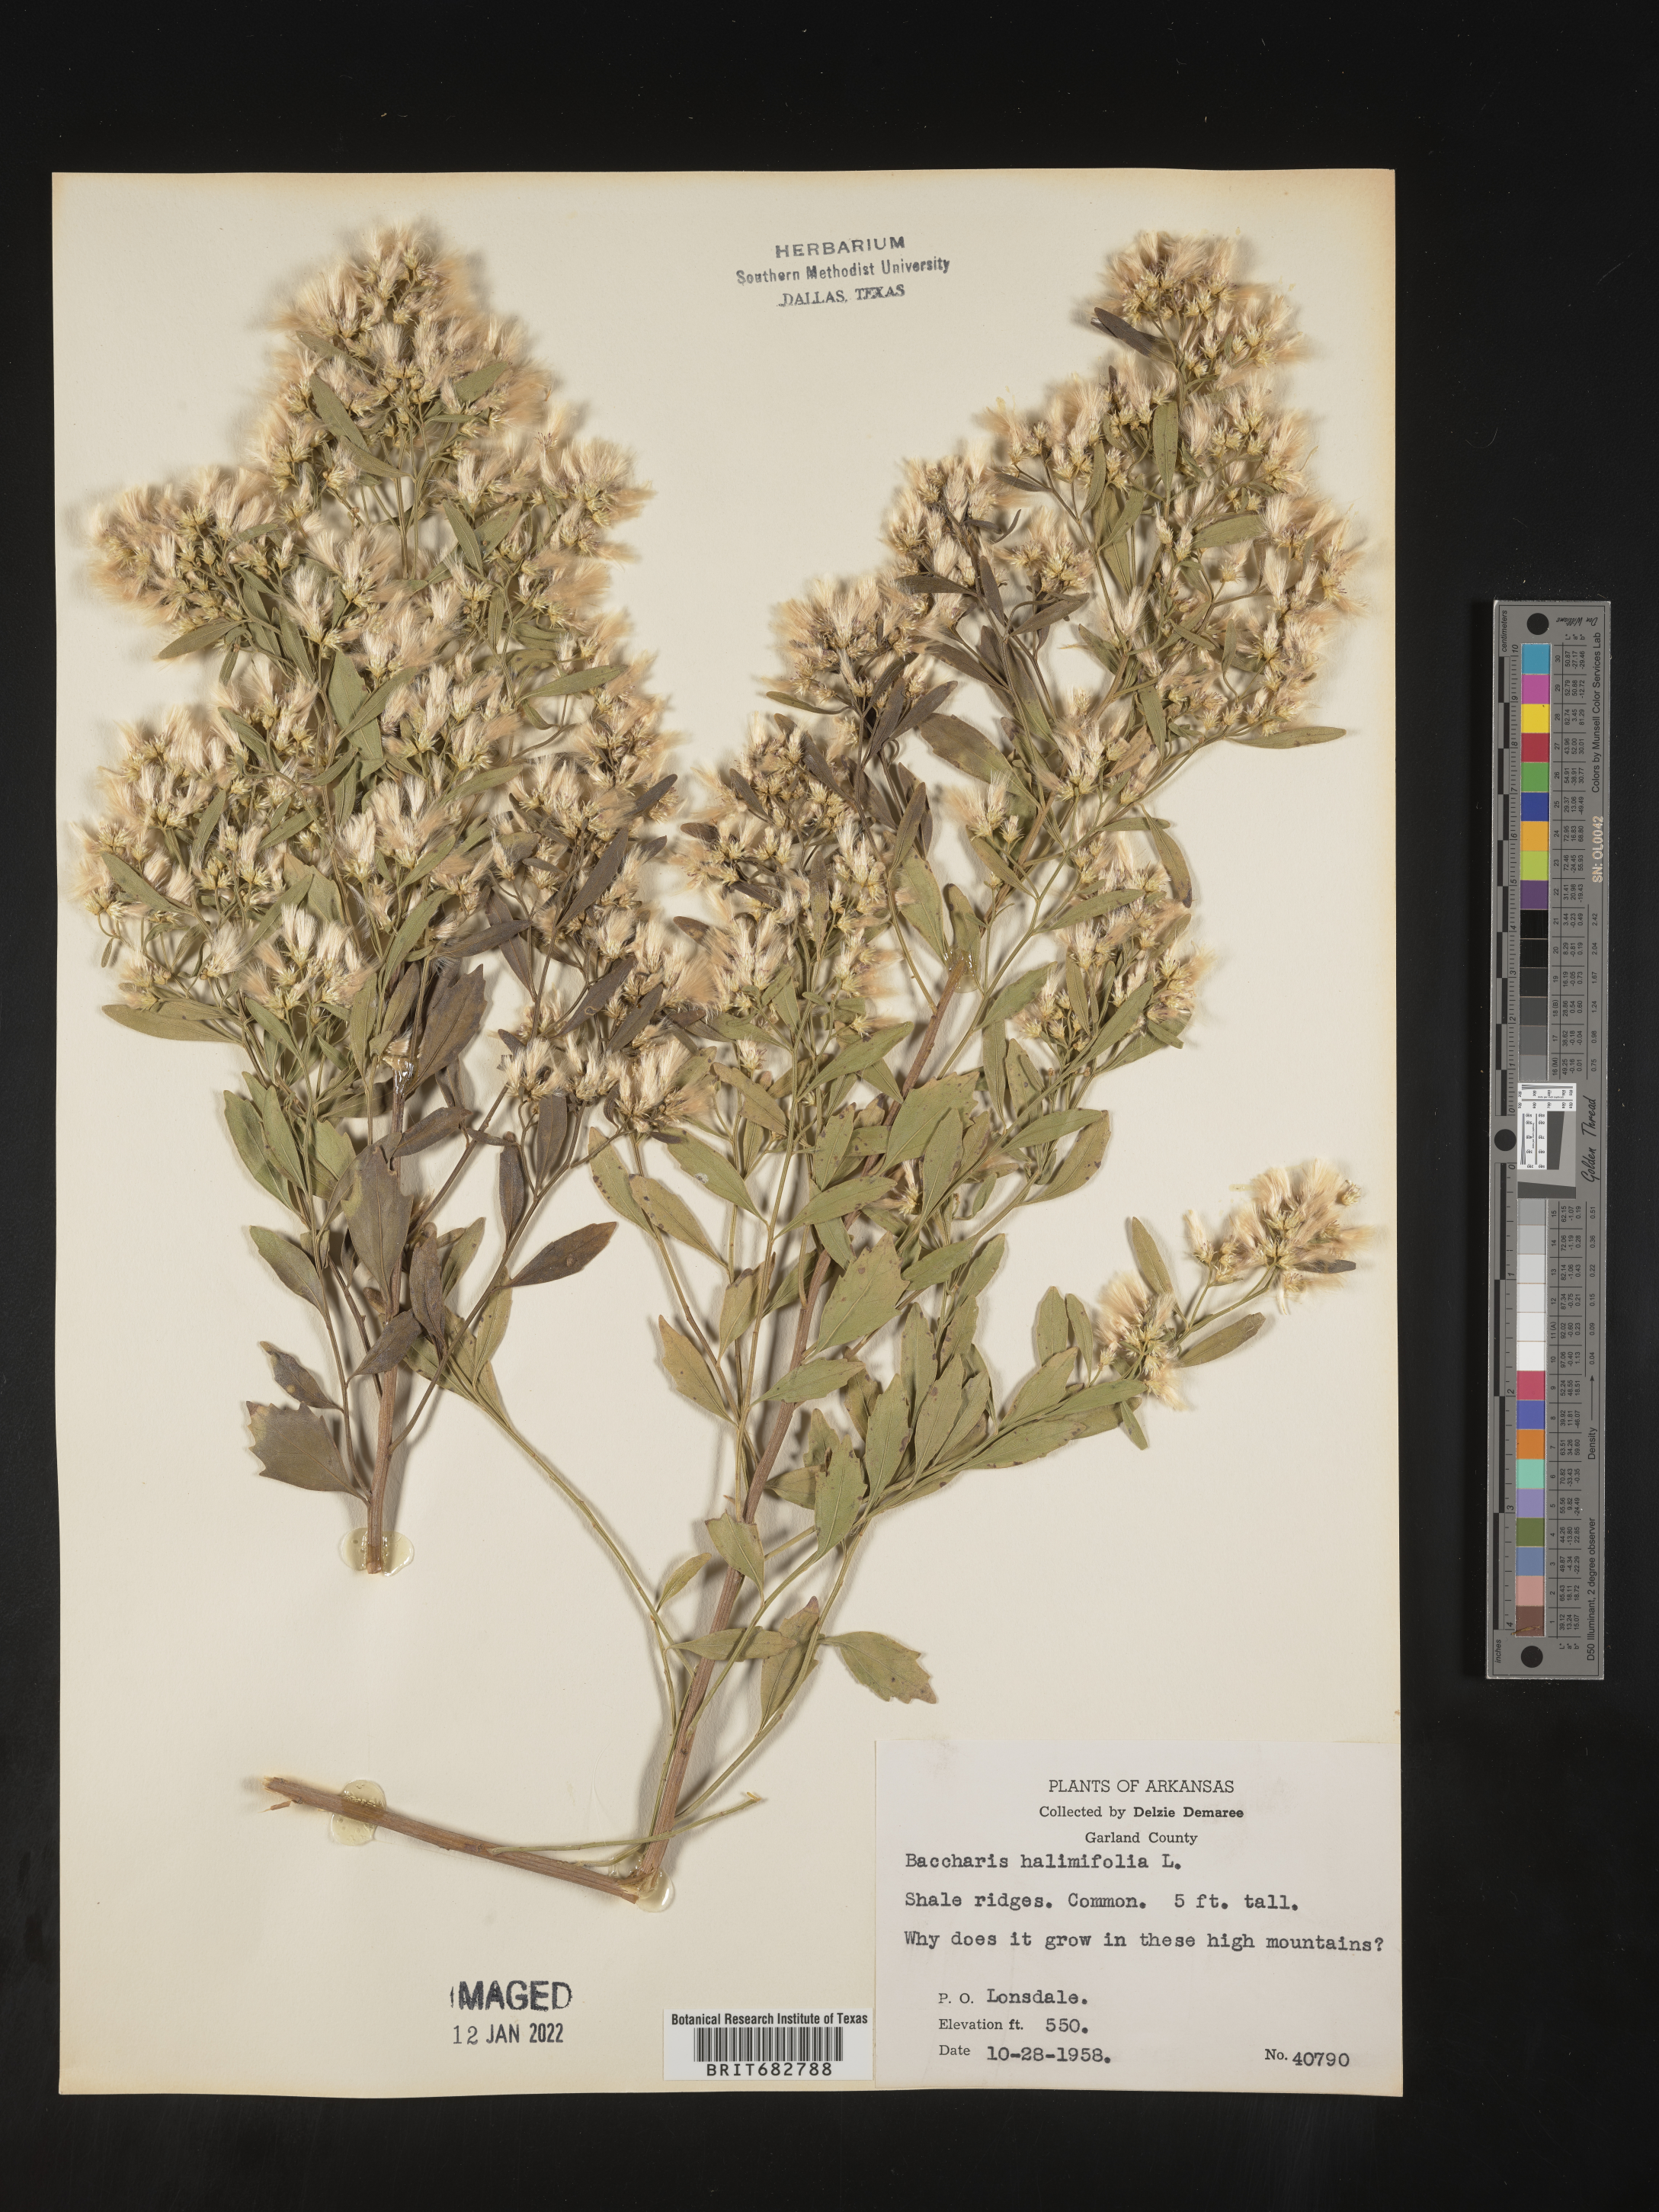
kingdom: Plantae
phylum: Tracheophyta
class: Magnoliopsida
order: Asterales
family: Asteraceae
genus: Nidorella
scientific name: Nidorella ivifolia
